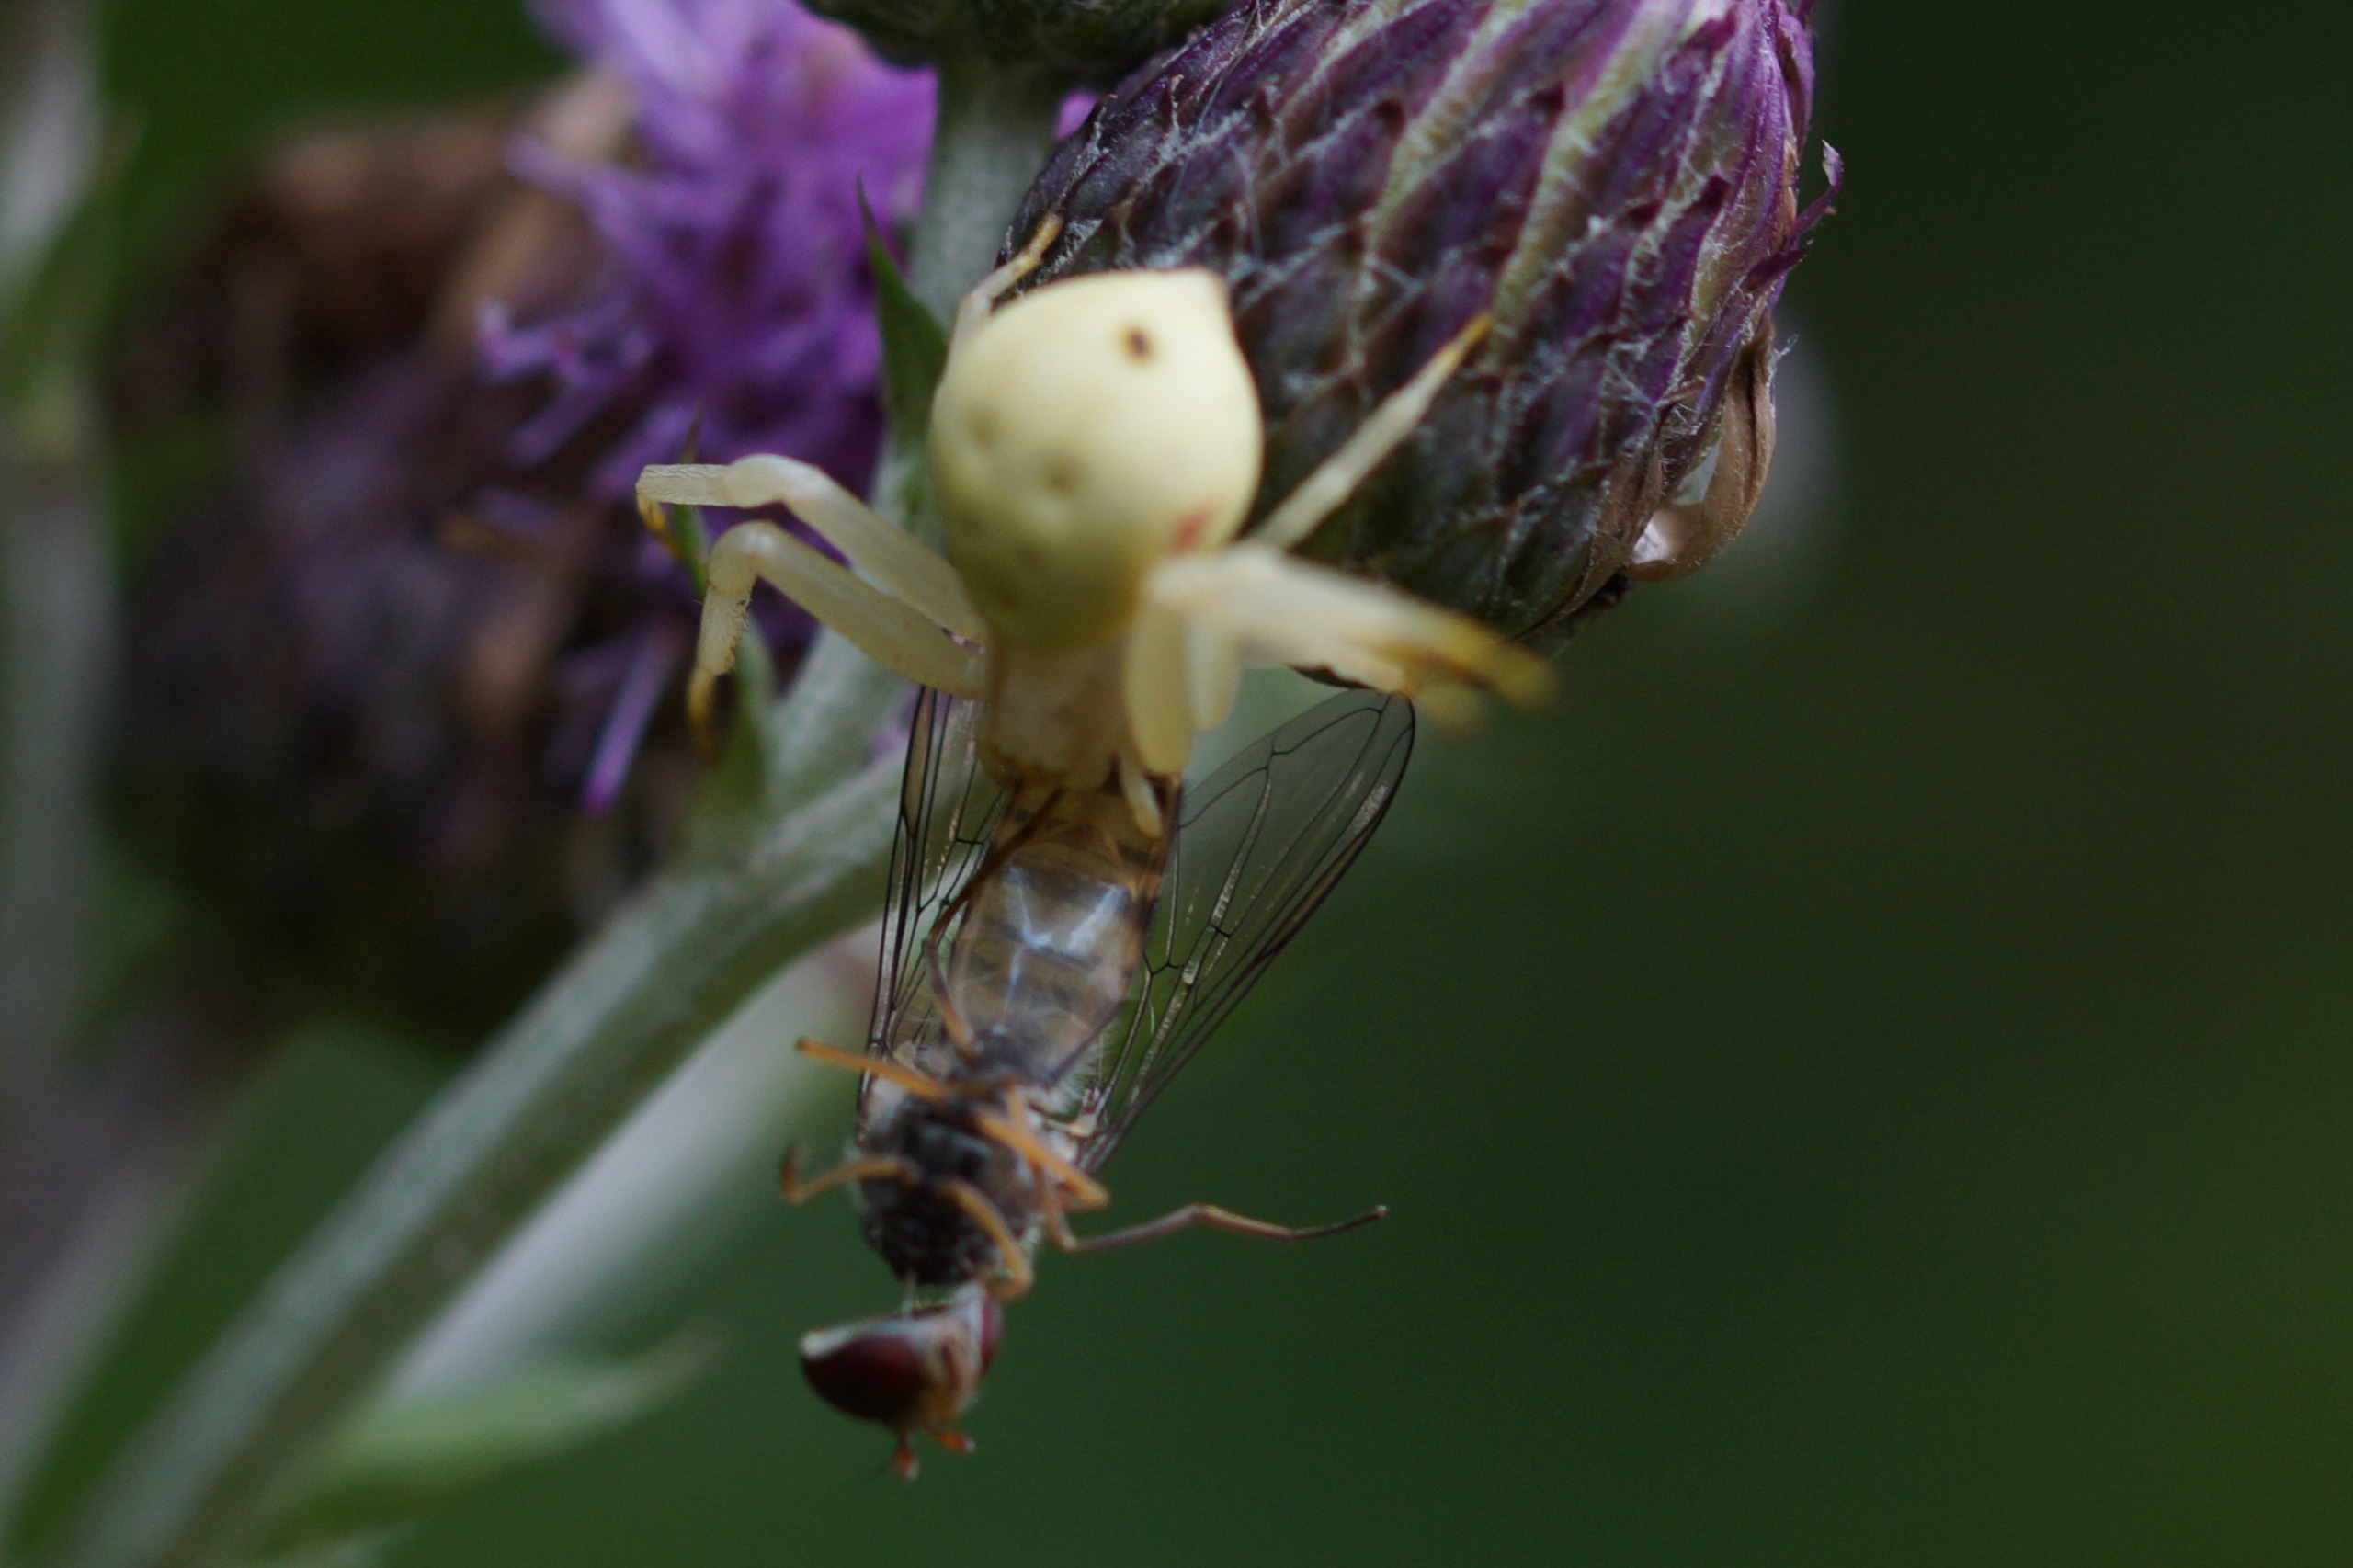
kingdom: Animalia
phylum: Arthropoda
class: Arachnida
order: Araneae
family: Thomisidae
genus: Misumena
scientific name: Misumena vatia
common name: Kamæleonedderkop
